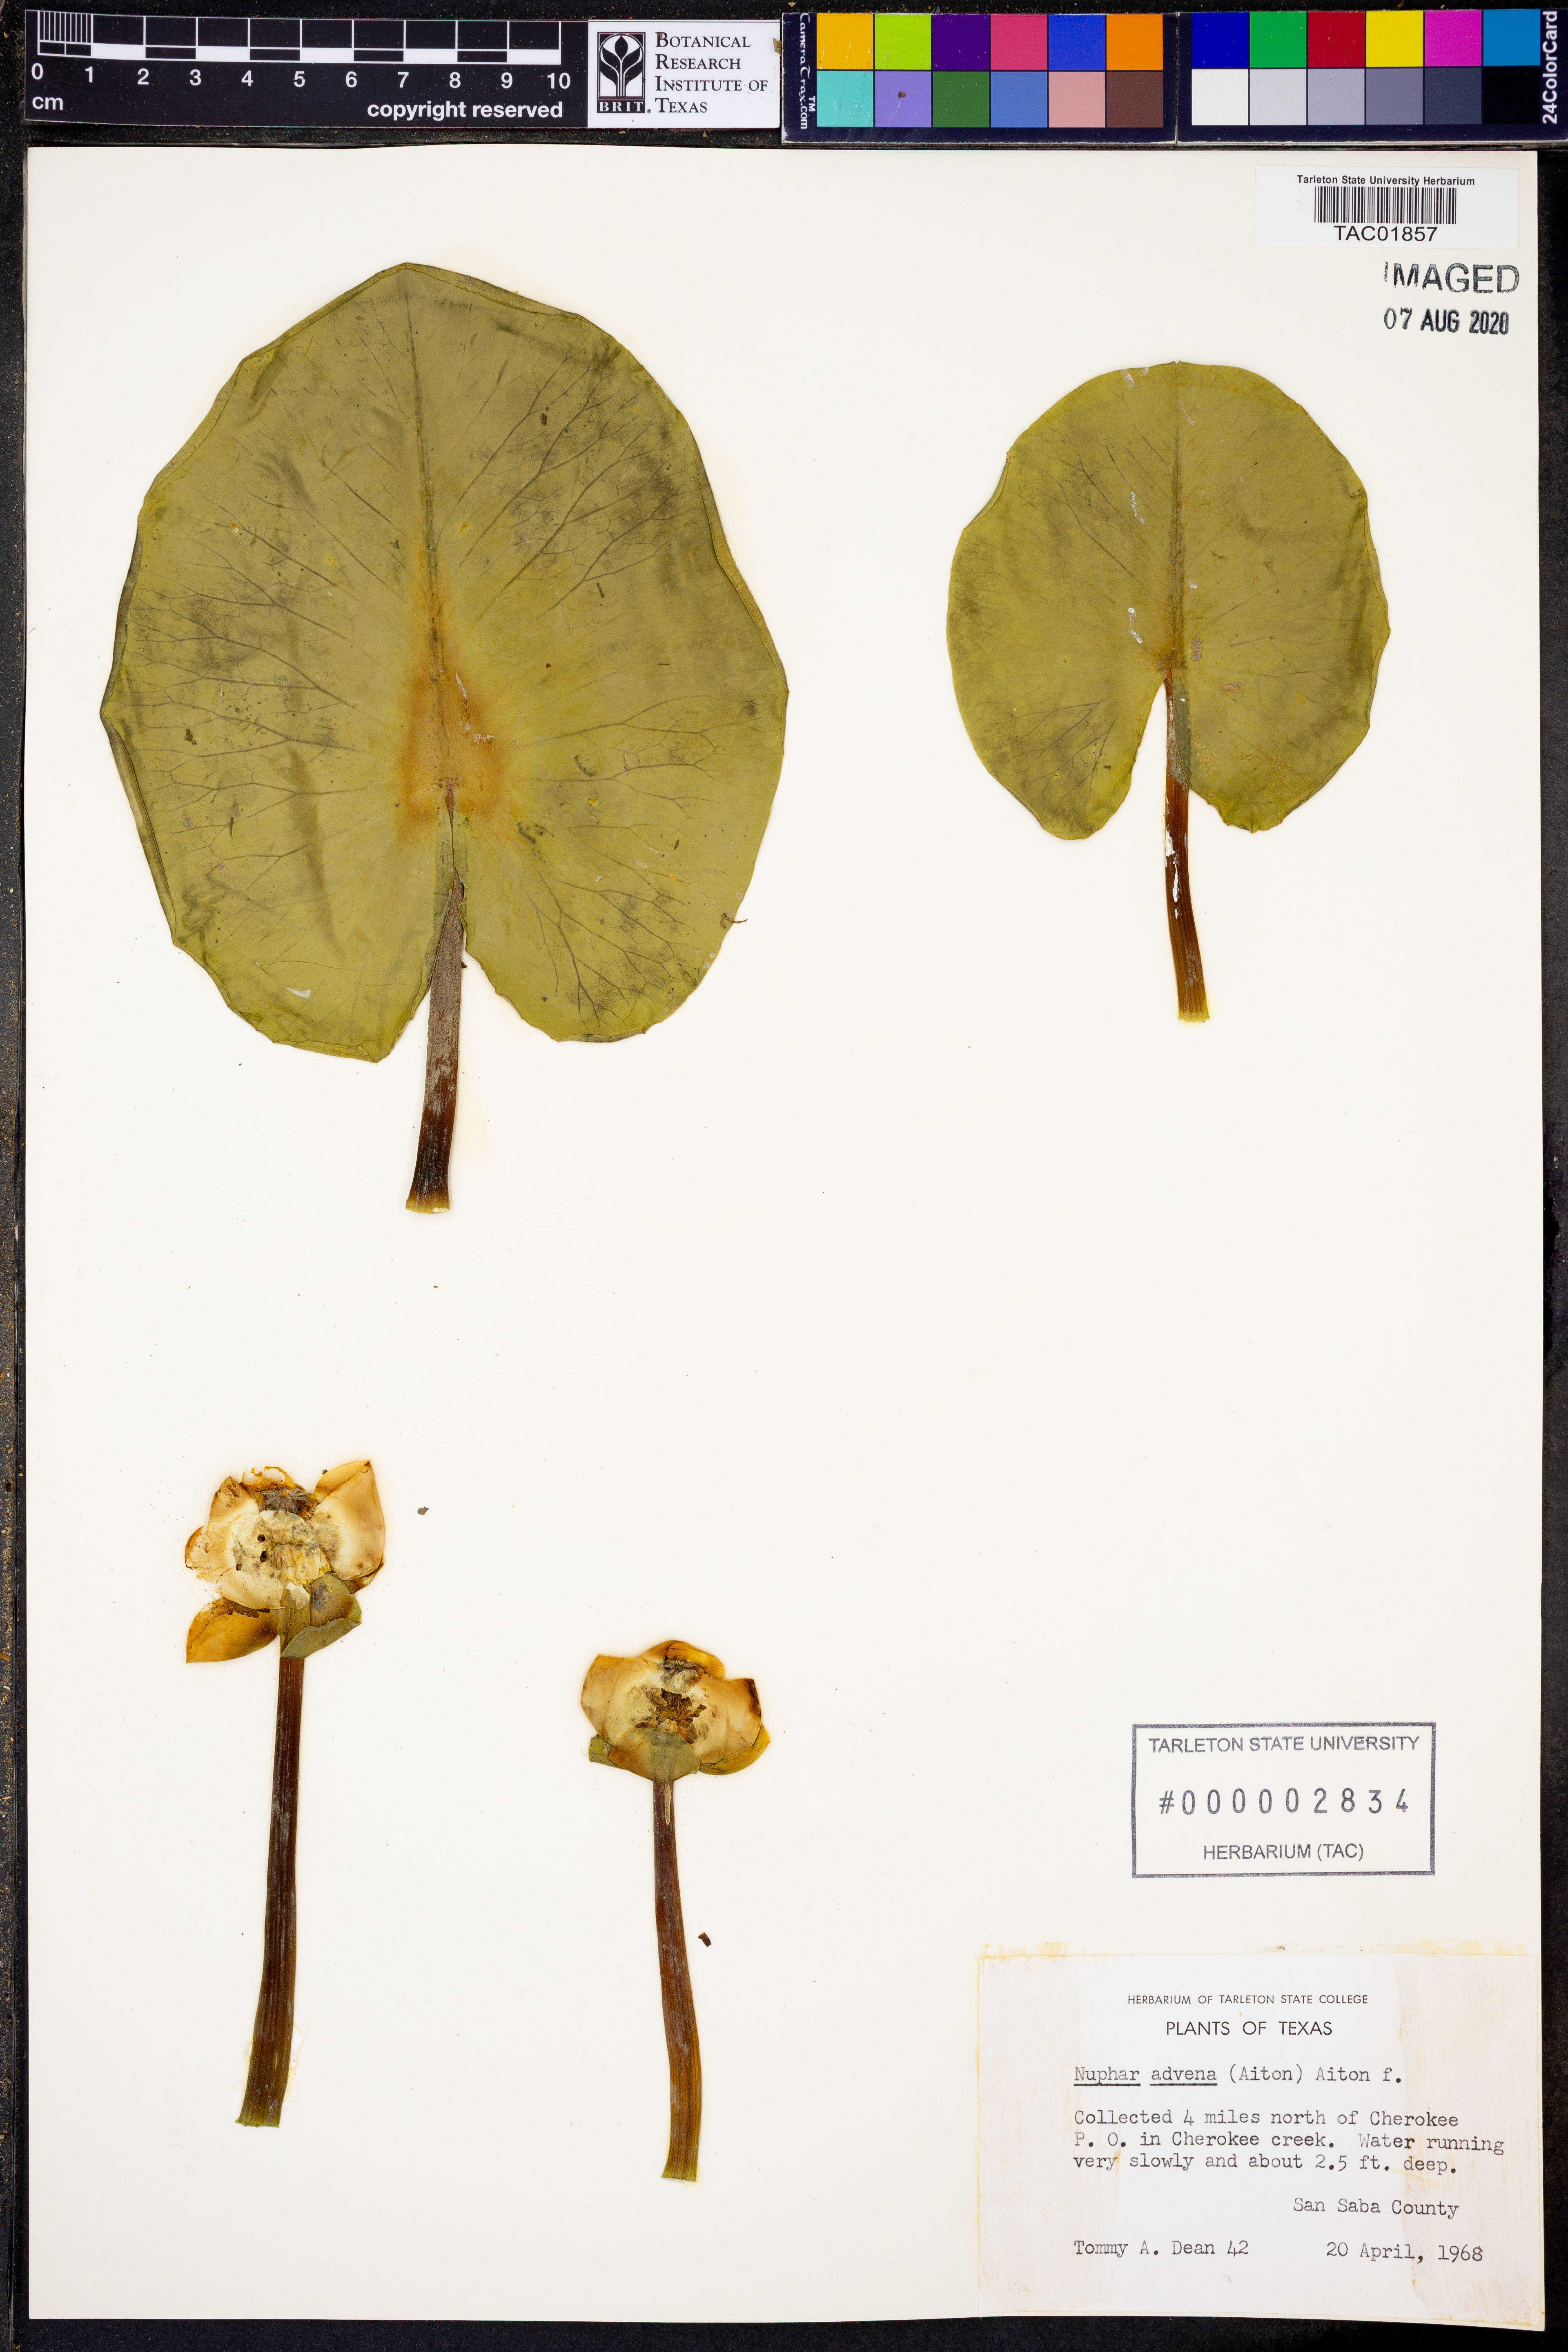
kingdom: Plantae
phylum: Tracheophyta
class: Magnoliopsida
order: Nymphaeales
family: Nymphaeaceae
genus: Nuphar
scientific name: Nuphar advena
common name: Spatter-dock
